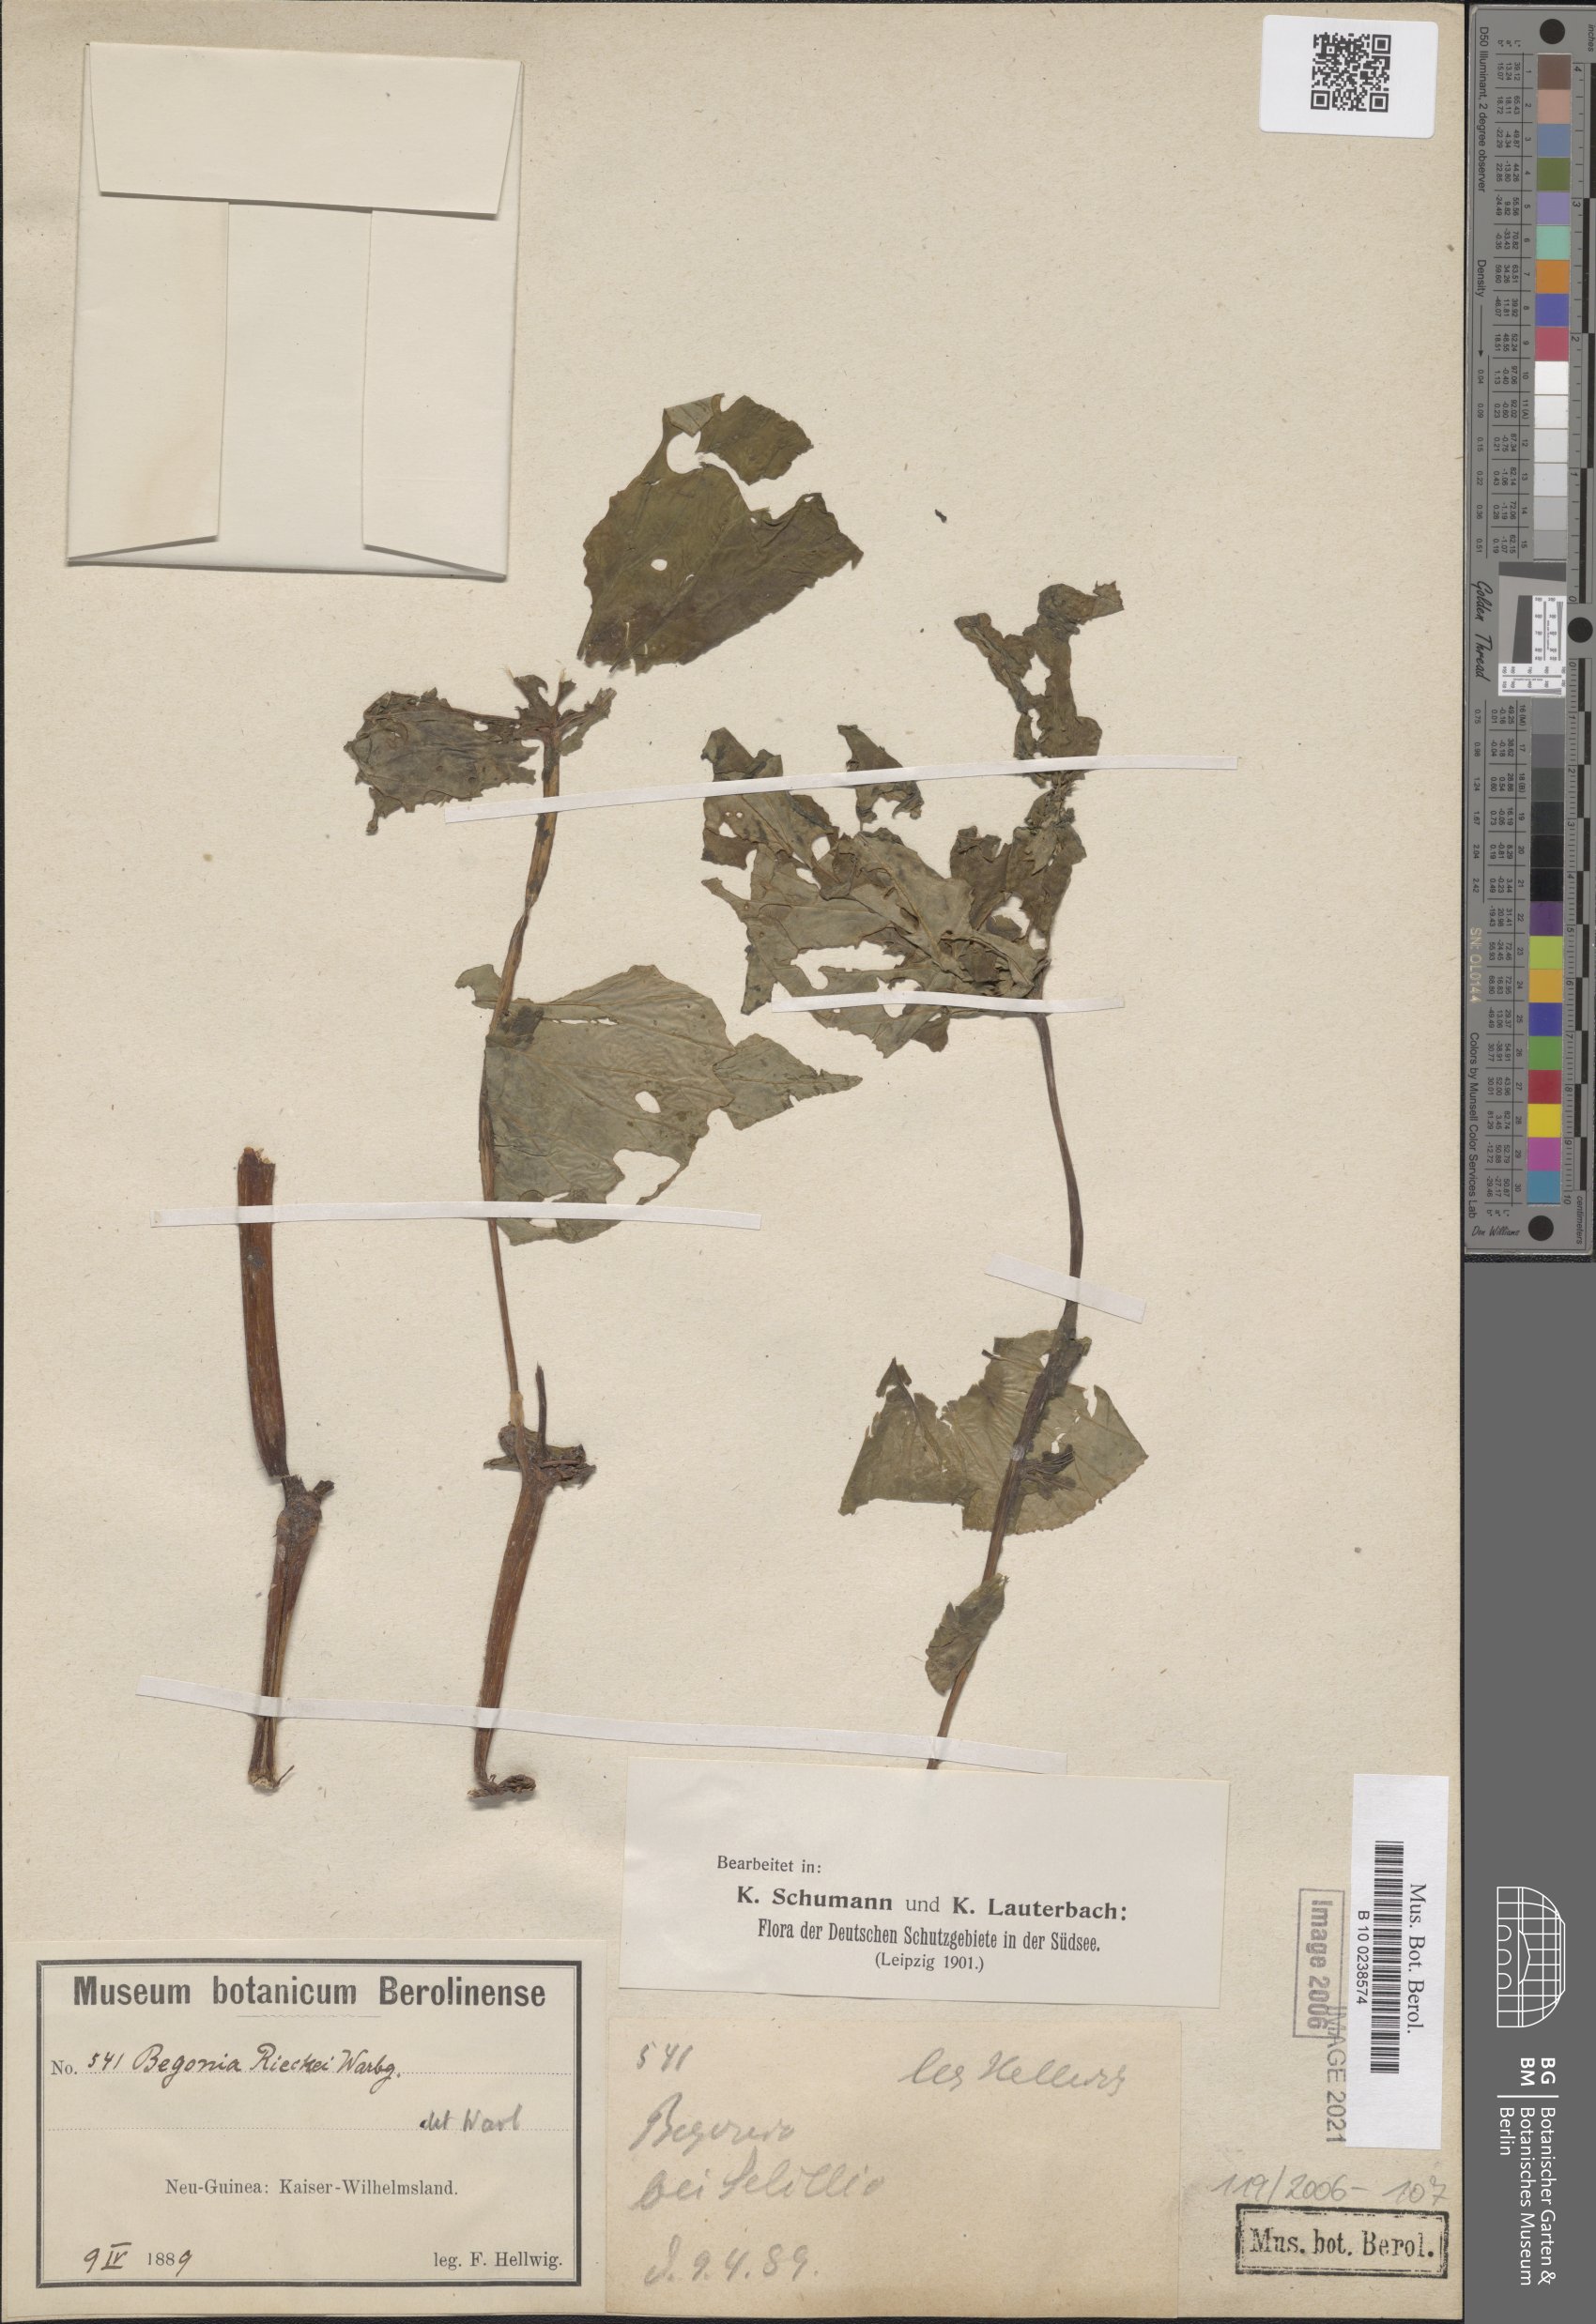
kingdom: Plantae
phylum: Tracheophyta
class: Magnoliopsida
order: Cucurbitales
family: Begoniaceae
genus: Begonia
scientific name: Begonia rieckei
